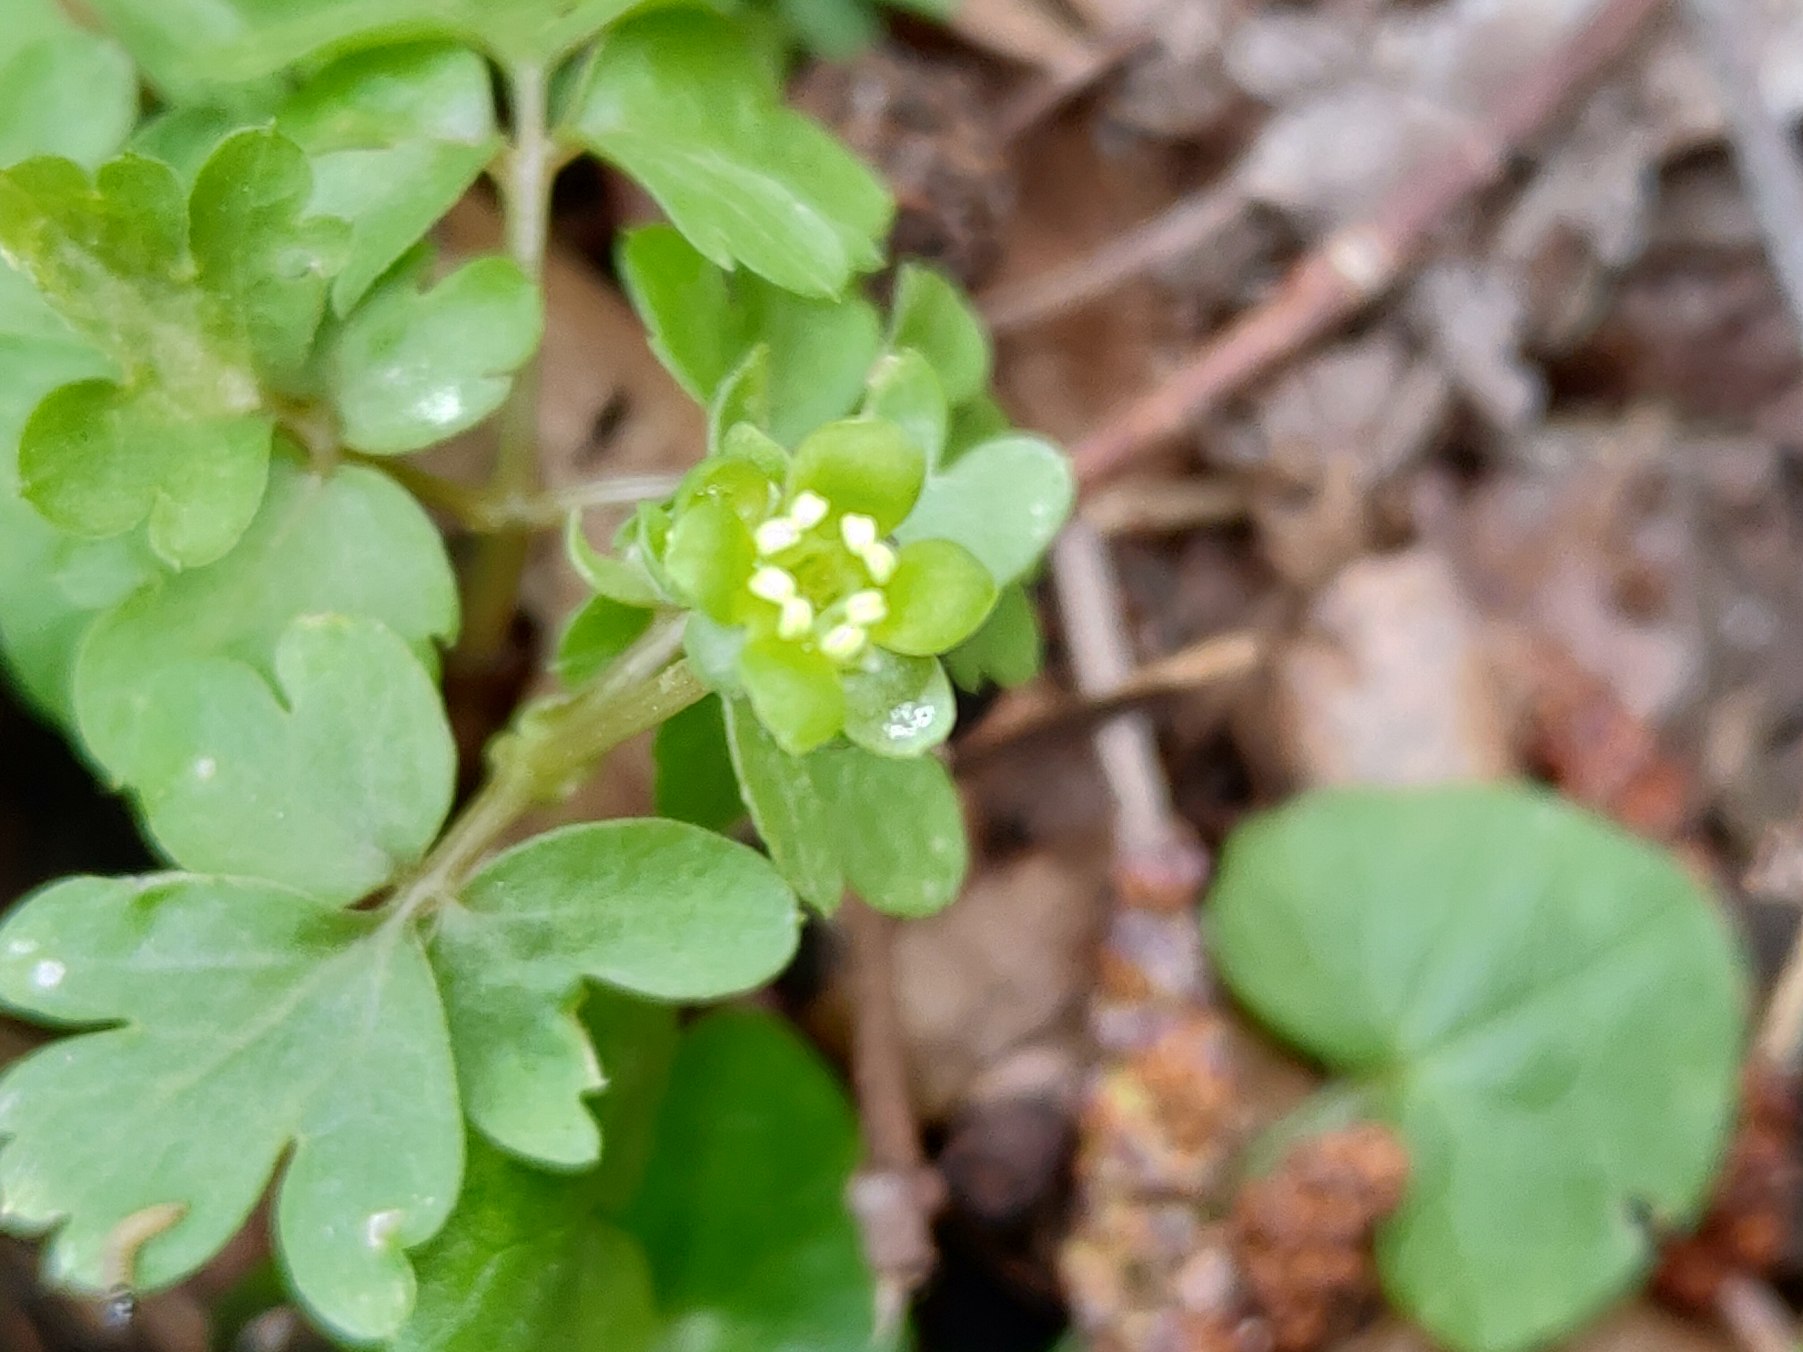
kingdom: Plantae
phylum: Tracheophyta
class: Magnoliopsida
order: Dipsacales
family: Viburnaceae
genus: Adoxa
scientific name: Adoxa moschatellina
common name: Desmerurt
